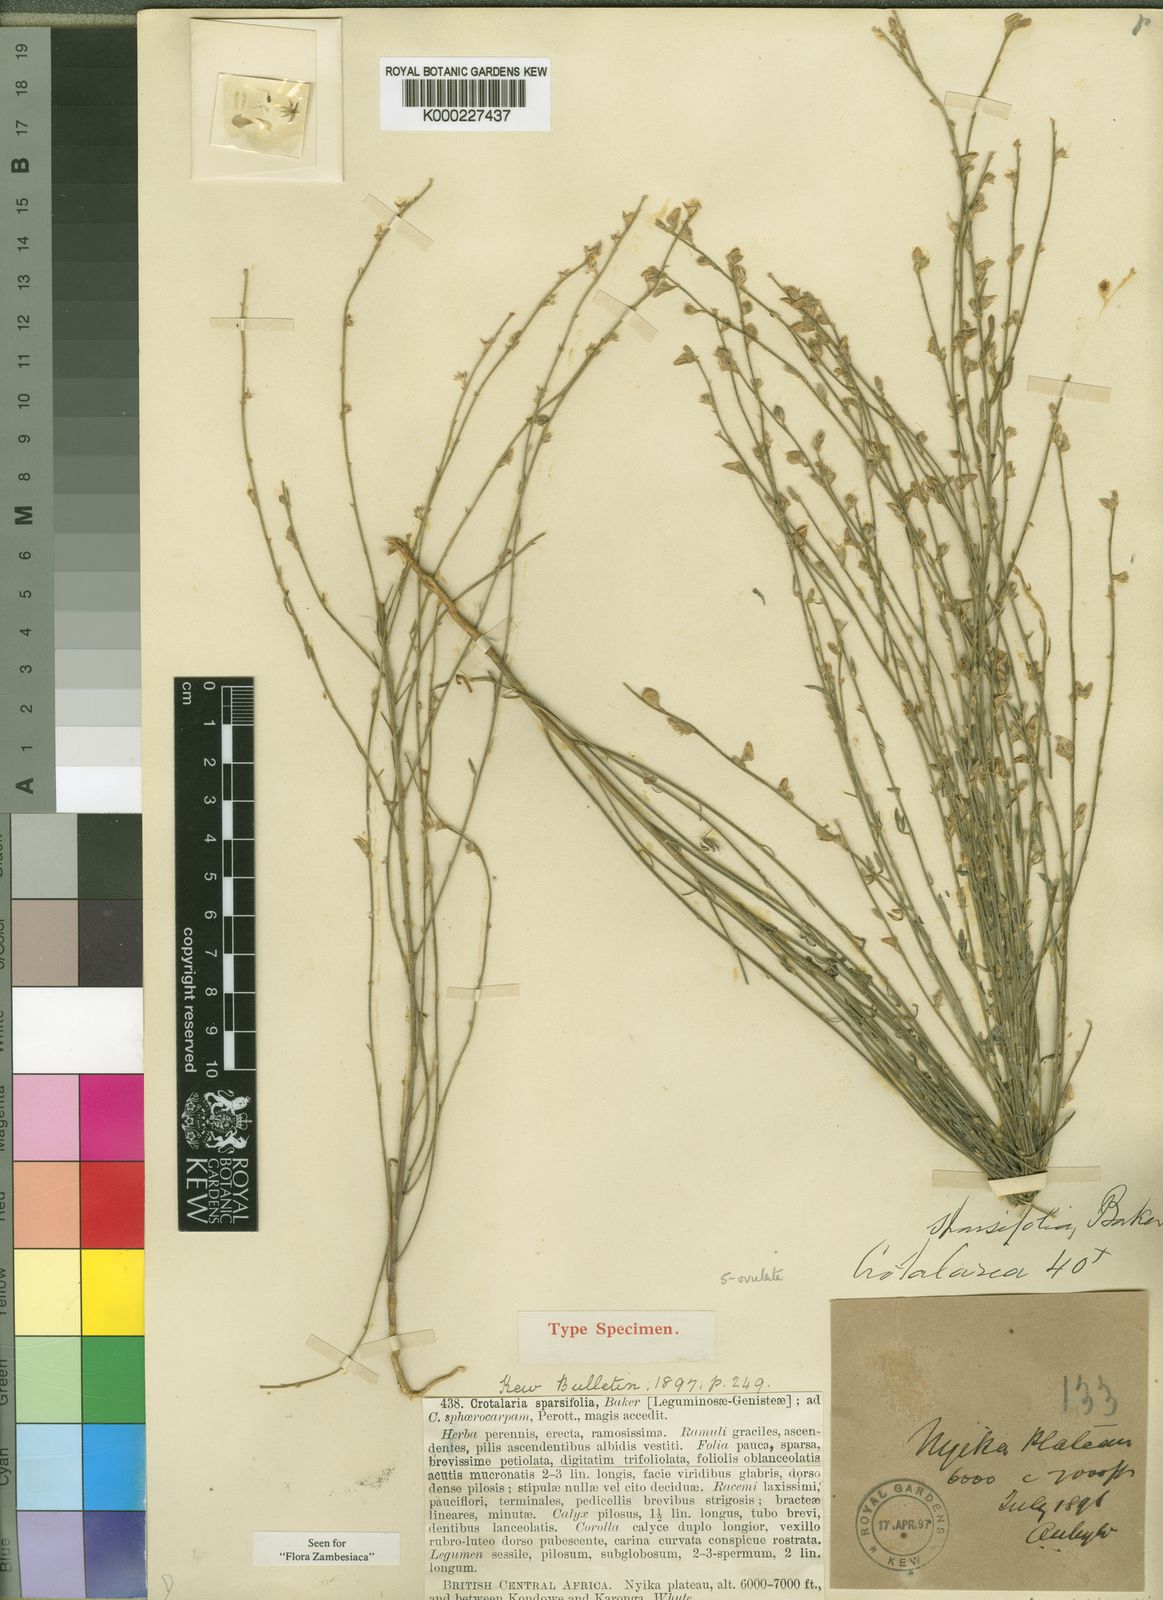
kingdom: Plantae
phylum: Tracheophyta
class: Magnoliopsida
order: Fabales
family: Fabaceae
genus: Crotalaria
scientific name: Crotalaria sparsifolia
